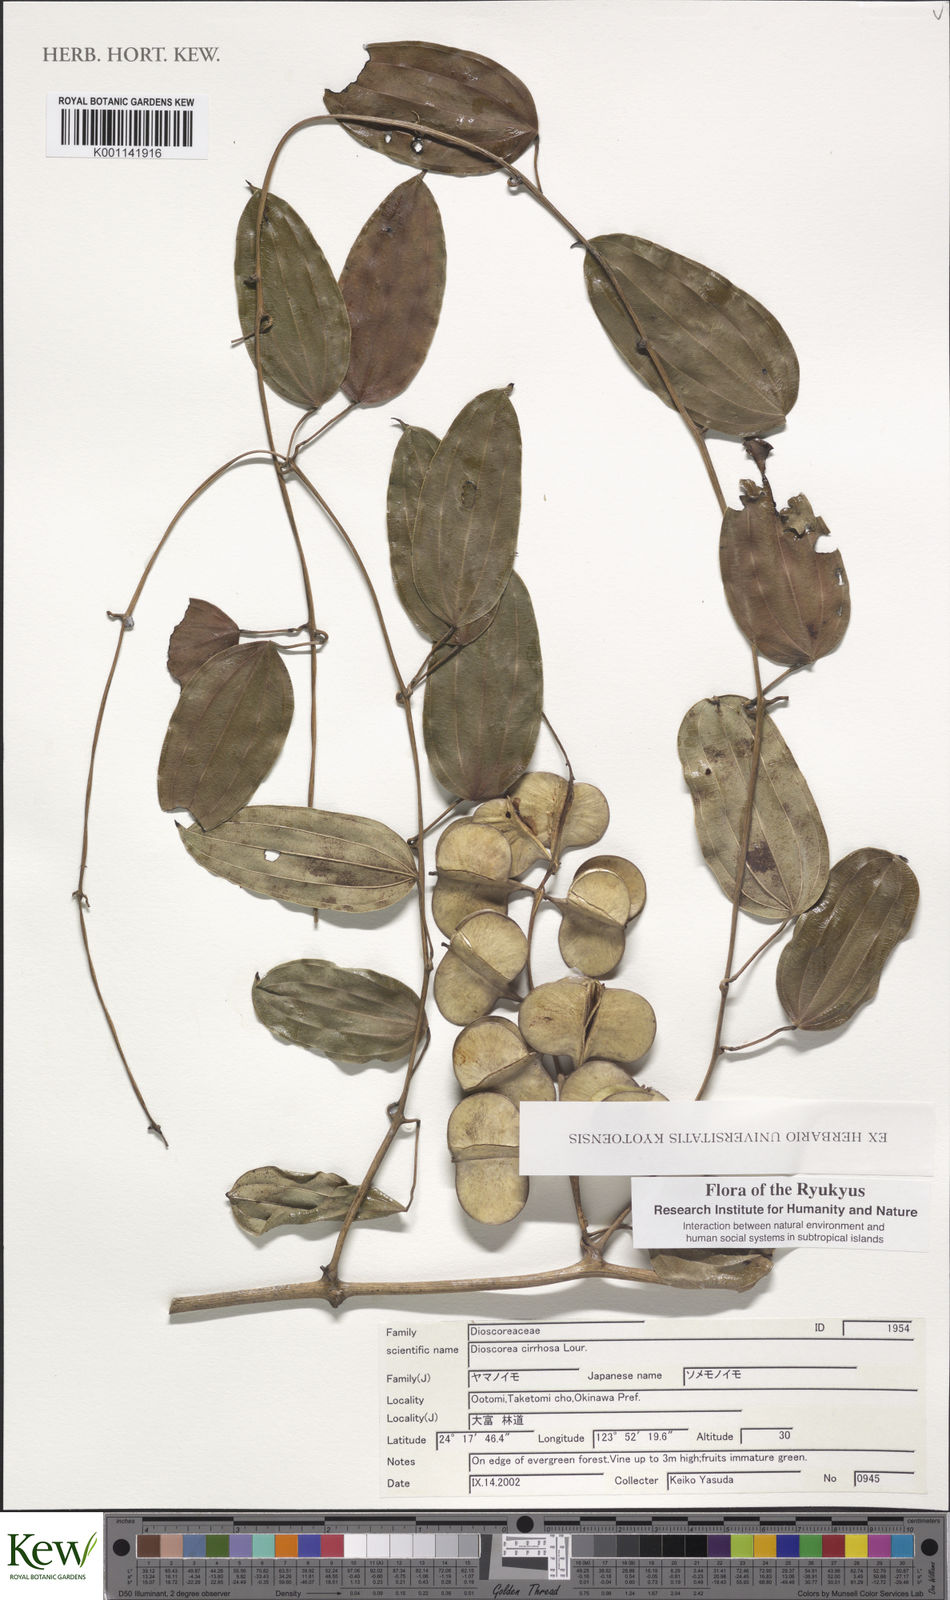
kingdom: Plantae
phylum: Tracheophyta
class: Liliopsida
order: Dioscoreales
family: Dioscoreaceae
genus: Dioscorea
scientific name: Dioscorea cirrhosa
